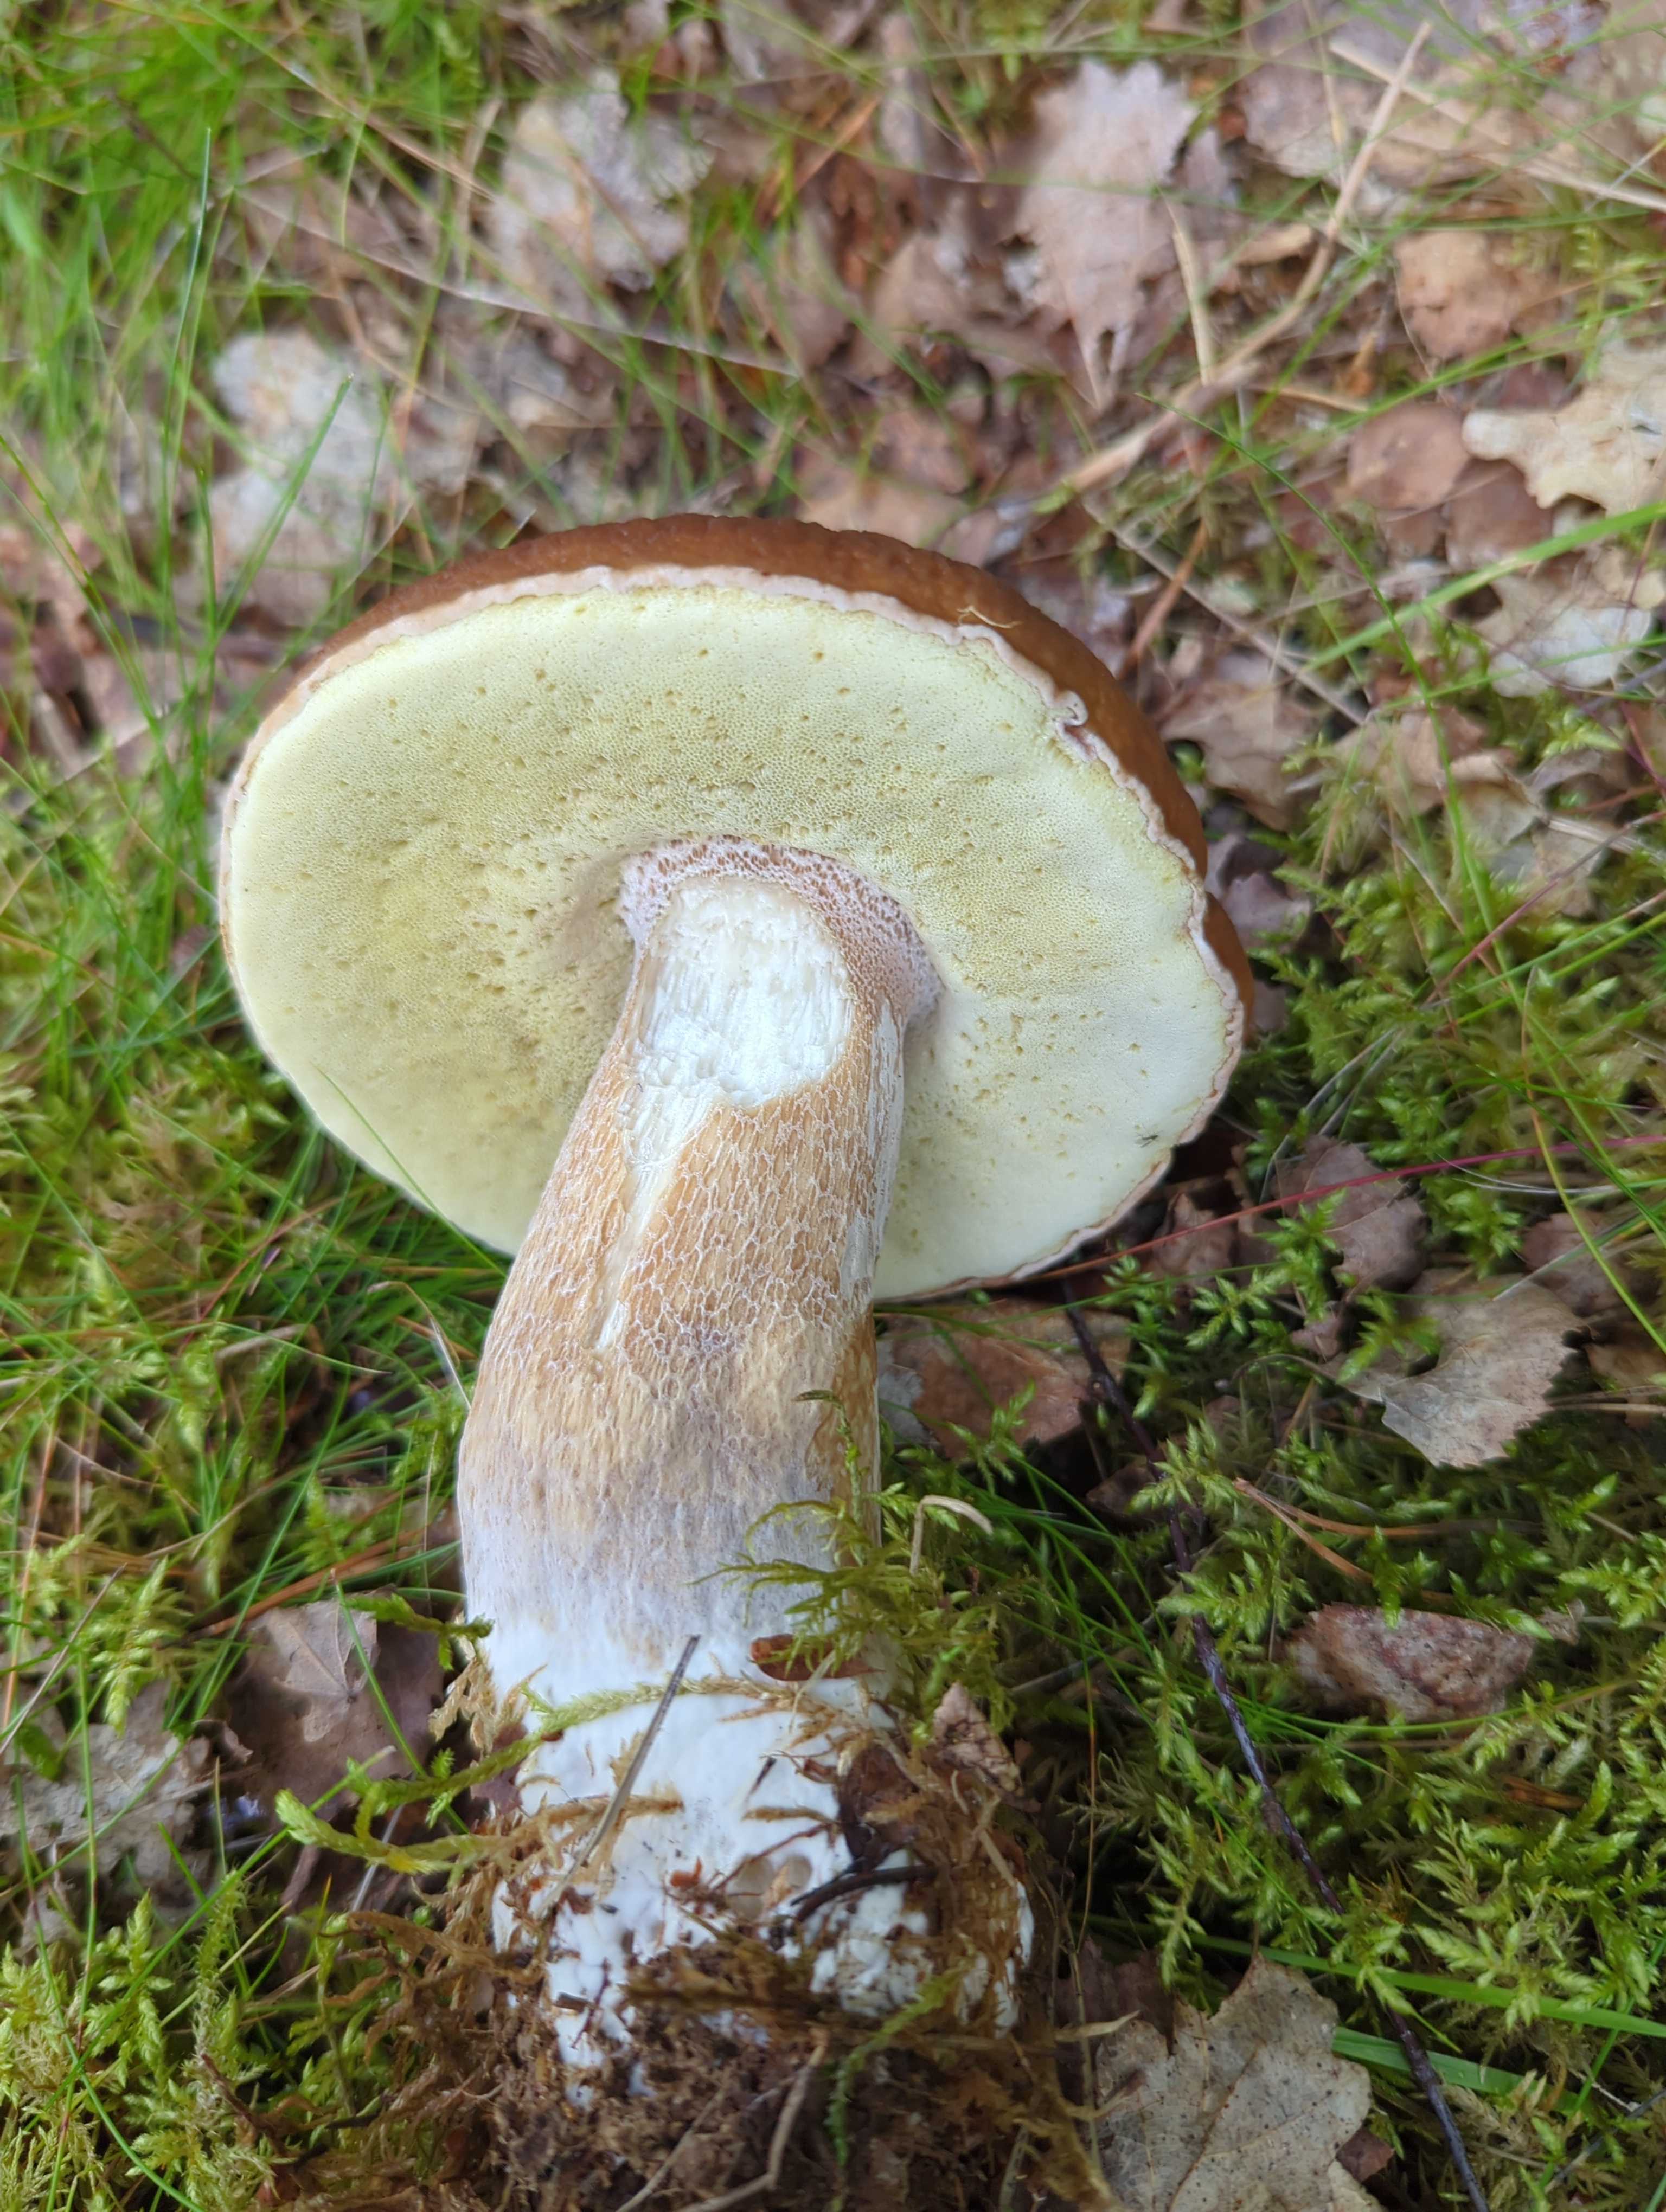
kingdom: Fungi
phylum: Basidiomycota
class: Agaricomycetes
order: Boletales
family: Boletaceae
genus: Boletus
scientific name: Boletus edulis
